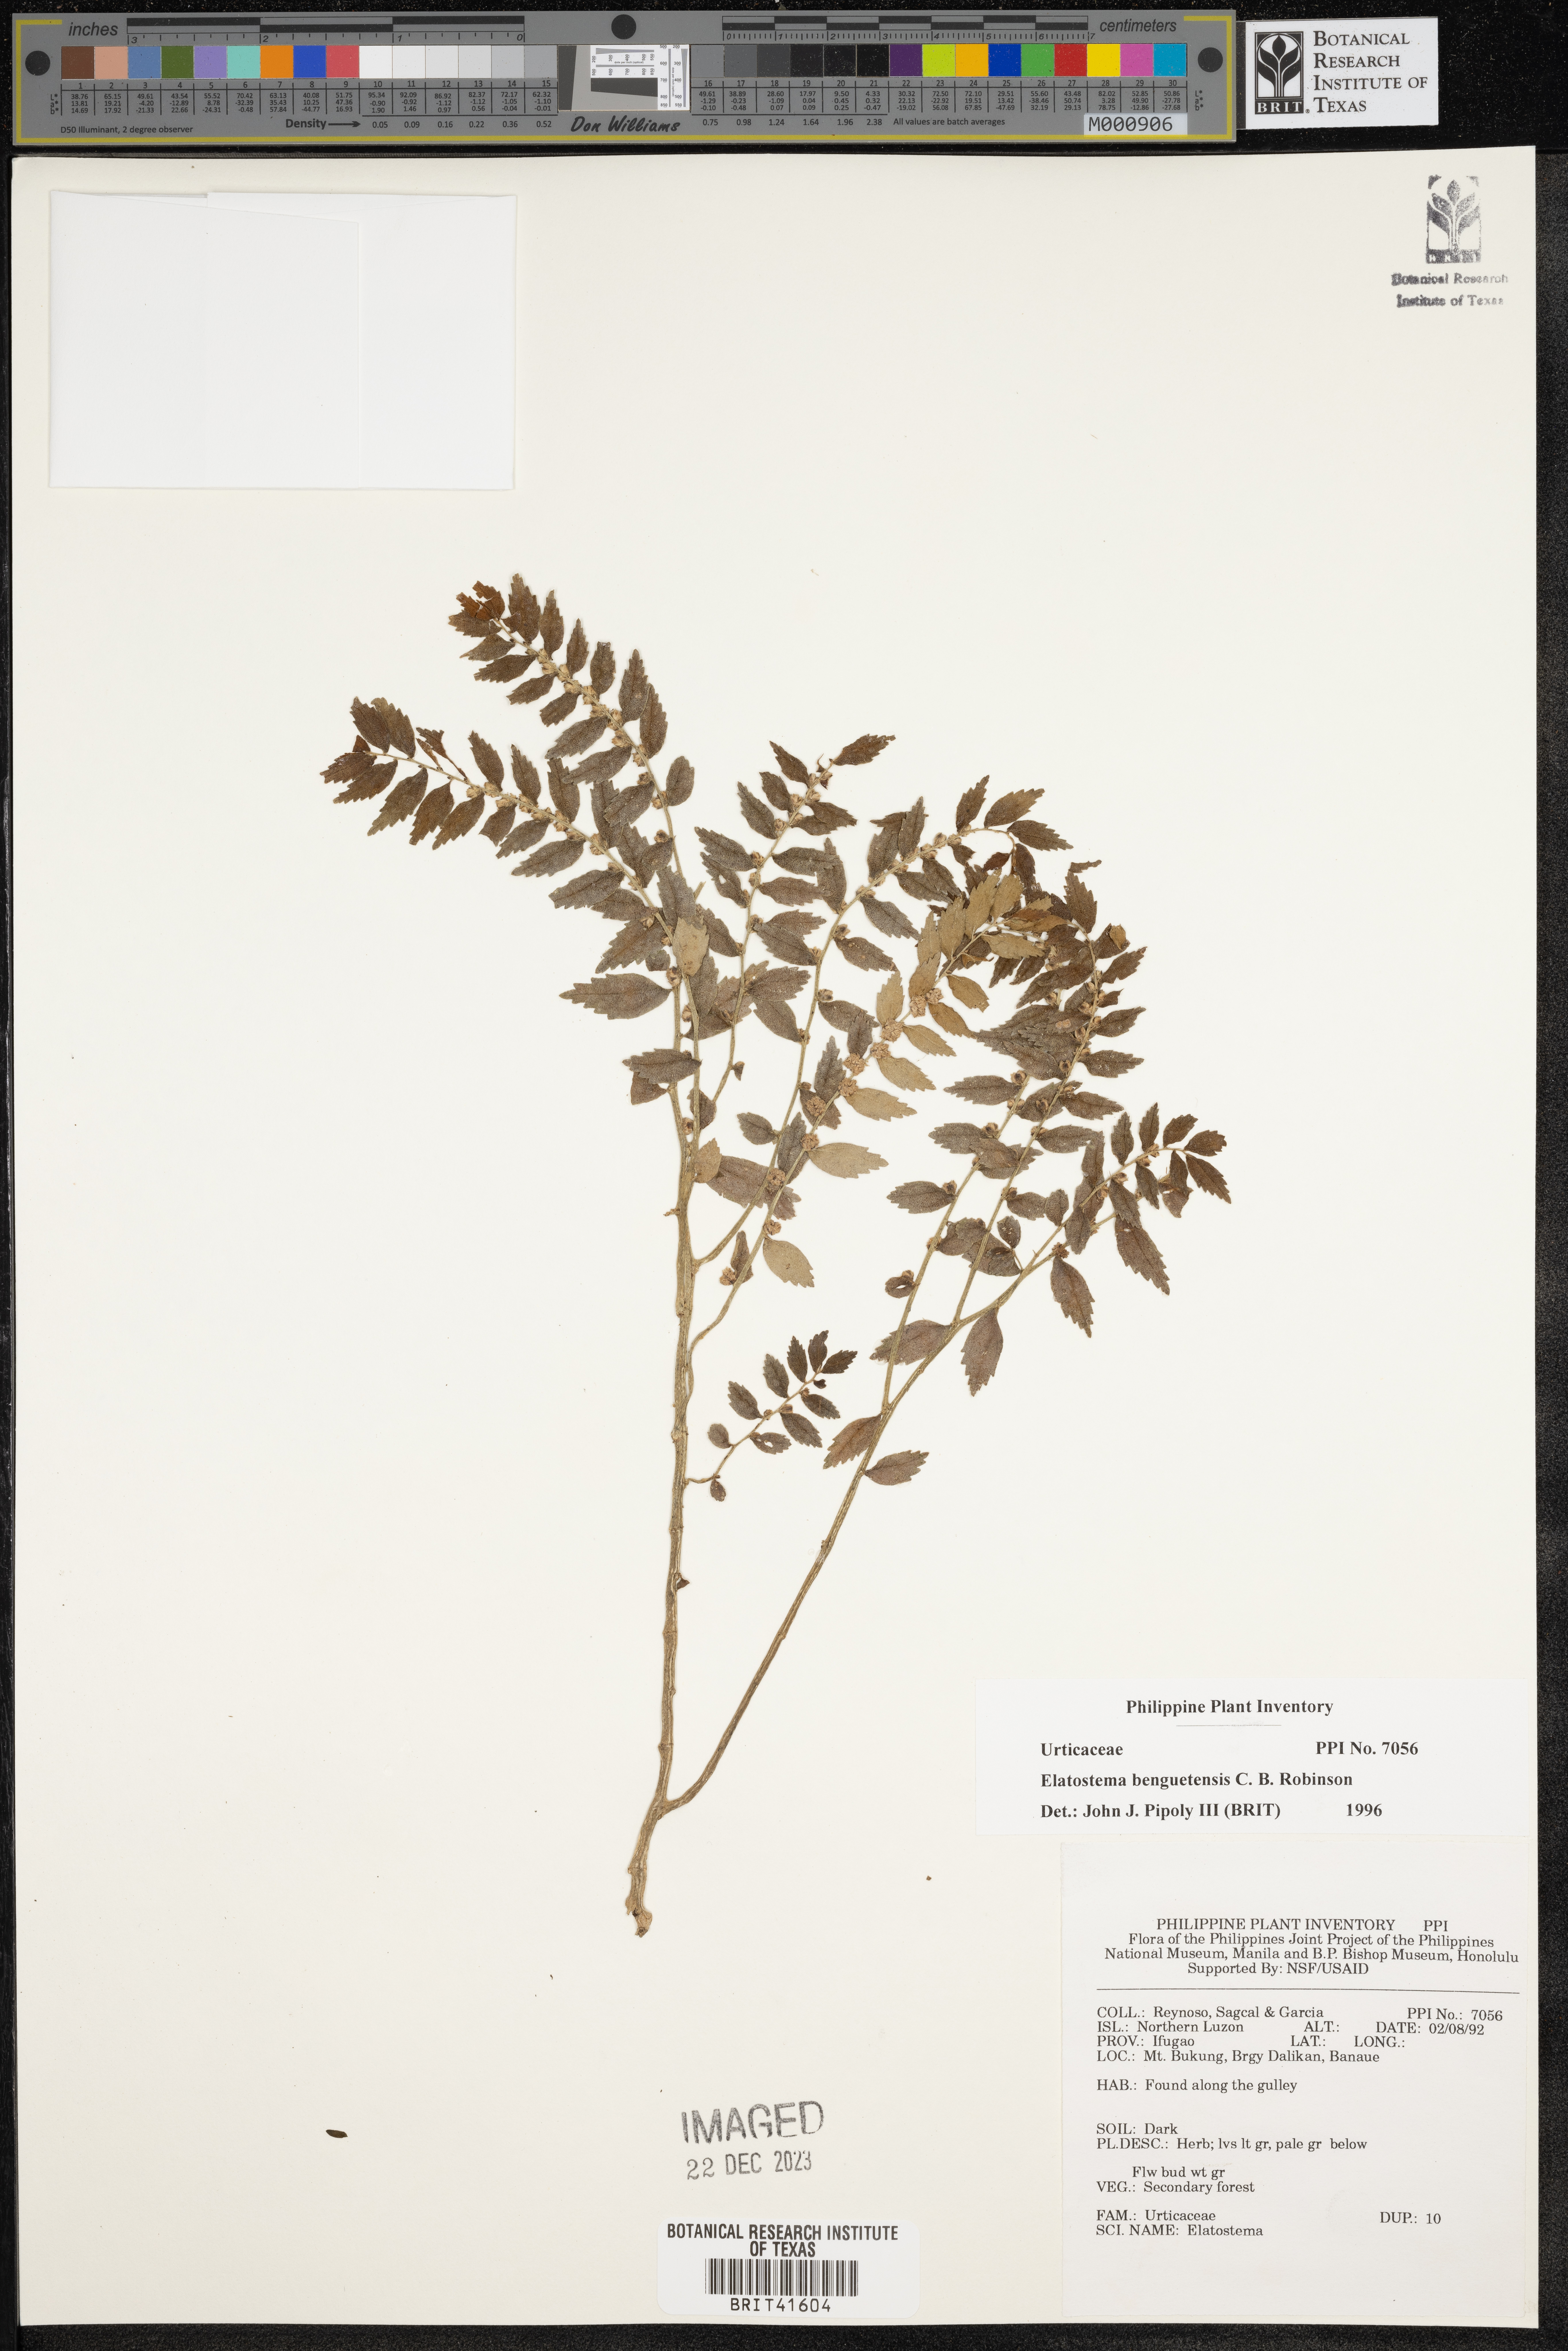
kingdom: Plantae
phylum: Tracheophyta
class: Magnoliopsida
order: Rosales
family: Urticaceae
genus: Elatostema
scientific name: Elatostema benguetense
